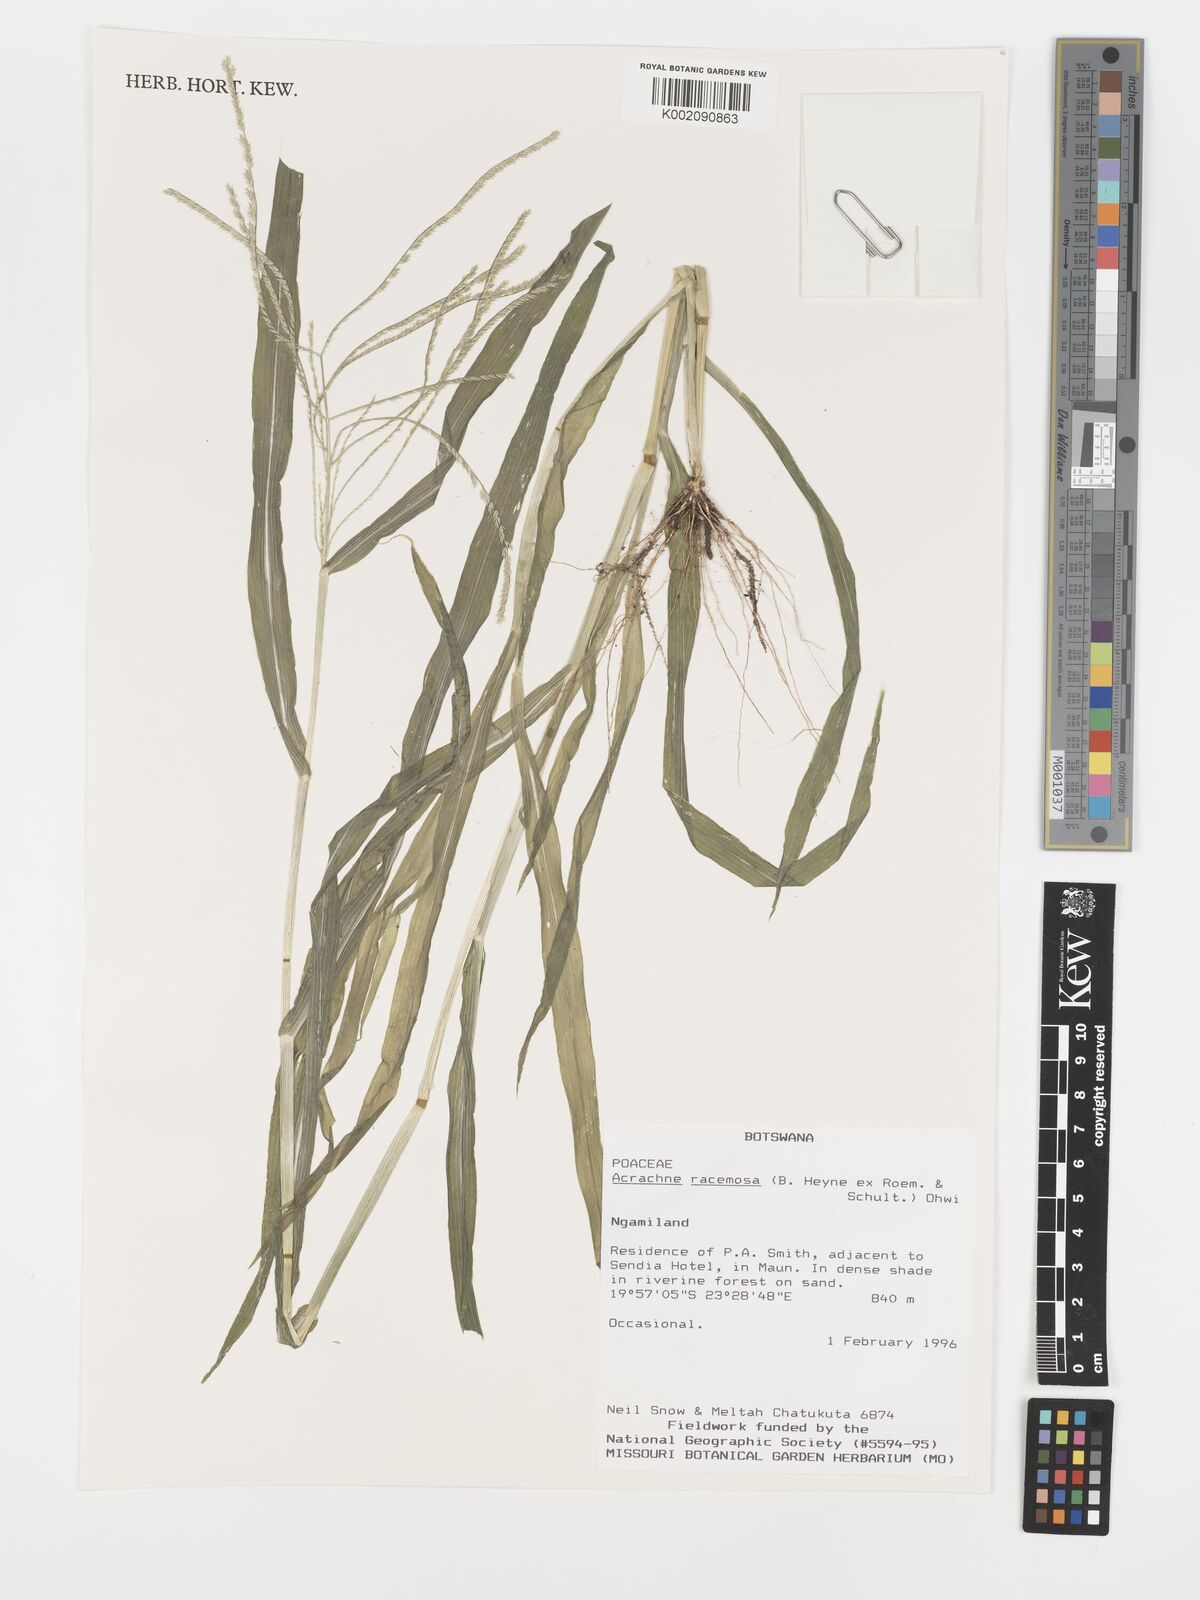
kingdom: Plantae
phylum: Tracheophyta
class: Liliopsida
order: Poales
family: Poaceae
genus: Acrachne
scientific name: Acrachne racemosa
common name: Goosegrass
